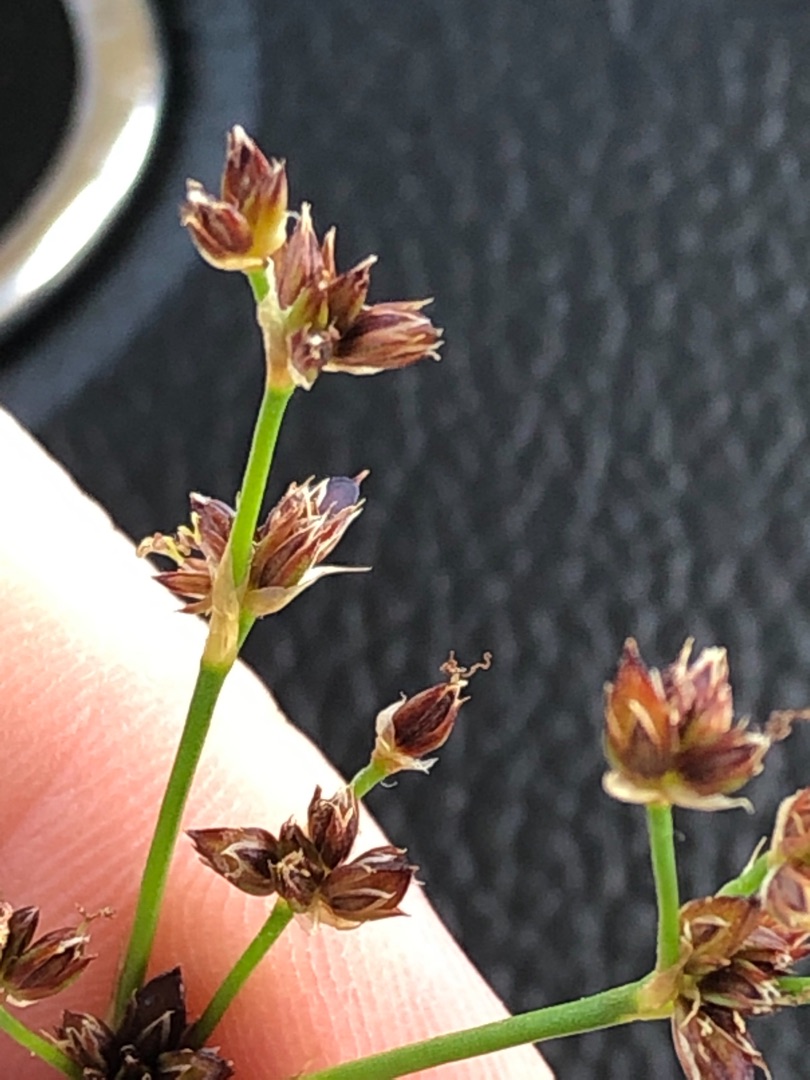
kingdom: Plantae
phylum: Tracheophyta
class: Liliopsida
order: Poales
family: Juncaceae
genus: Juncus
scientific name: Juncus articulatus
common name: Glanskapslet siv
